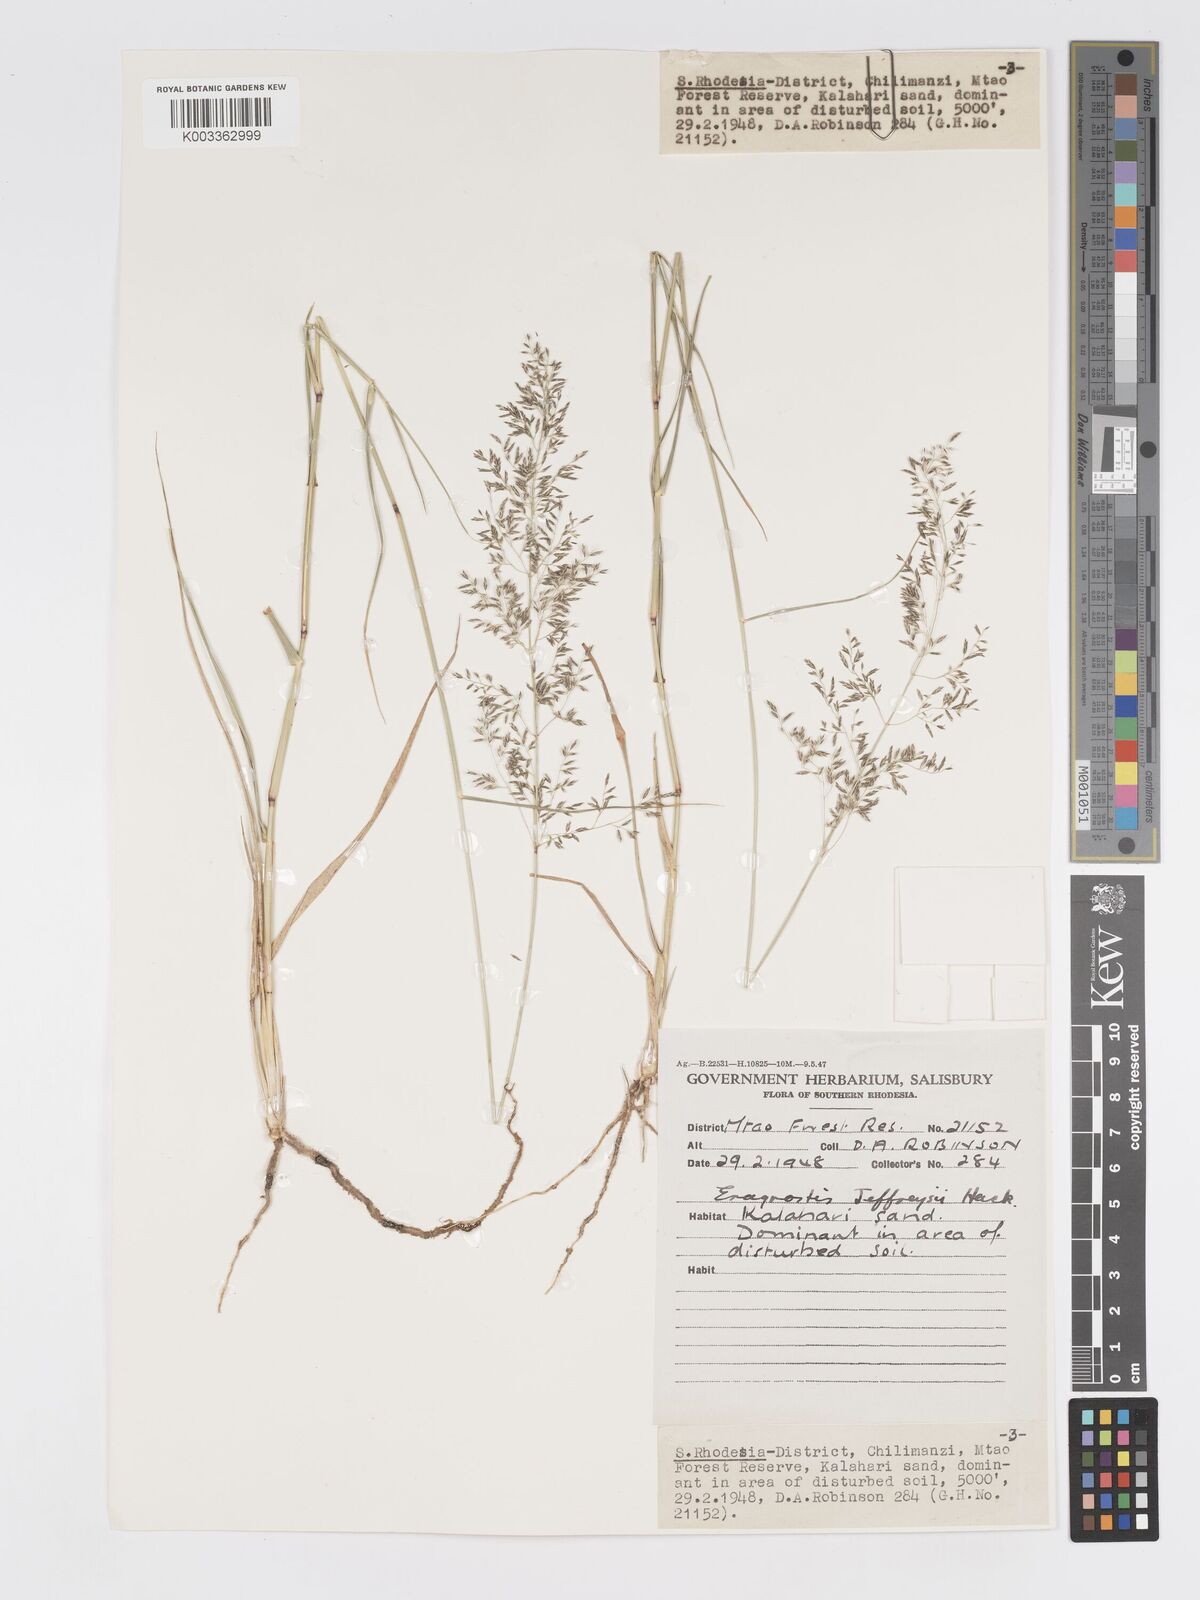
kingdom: Plantae
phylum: Tracheophyta
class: Liliopsida
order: Poales
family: Poaceae
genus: Eragrostis
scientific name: Eragrostis cylindriflora
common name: Cylinderflower lovegrass
